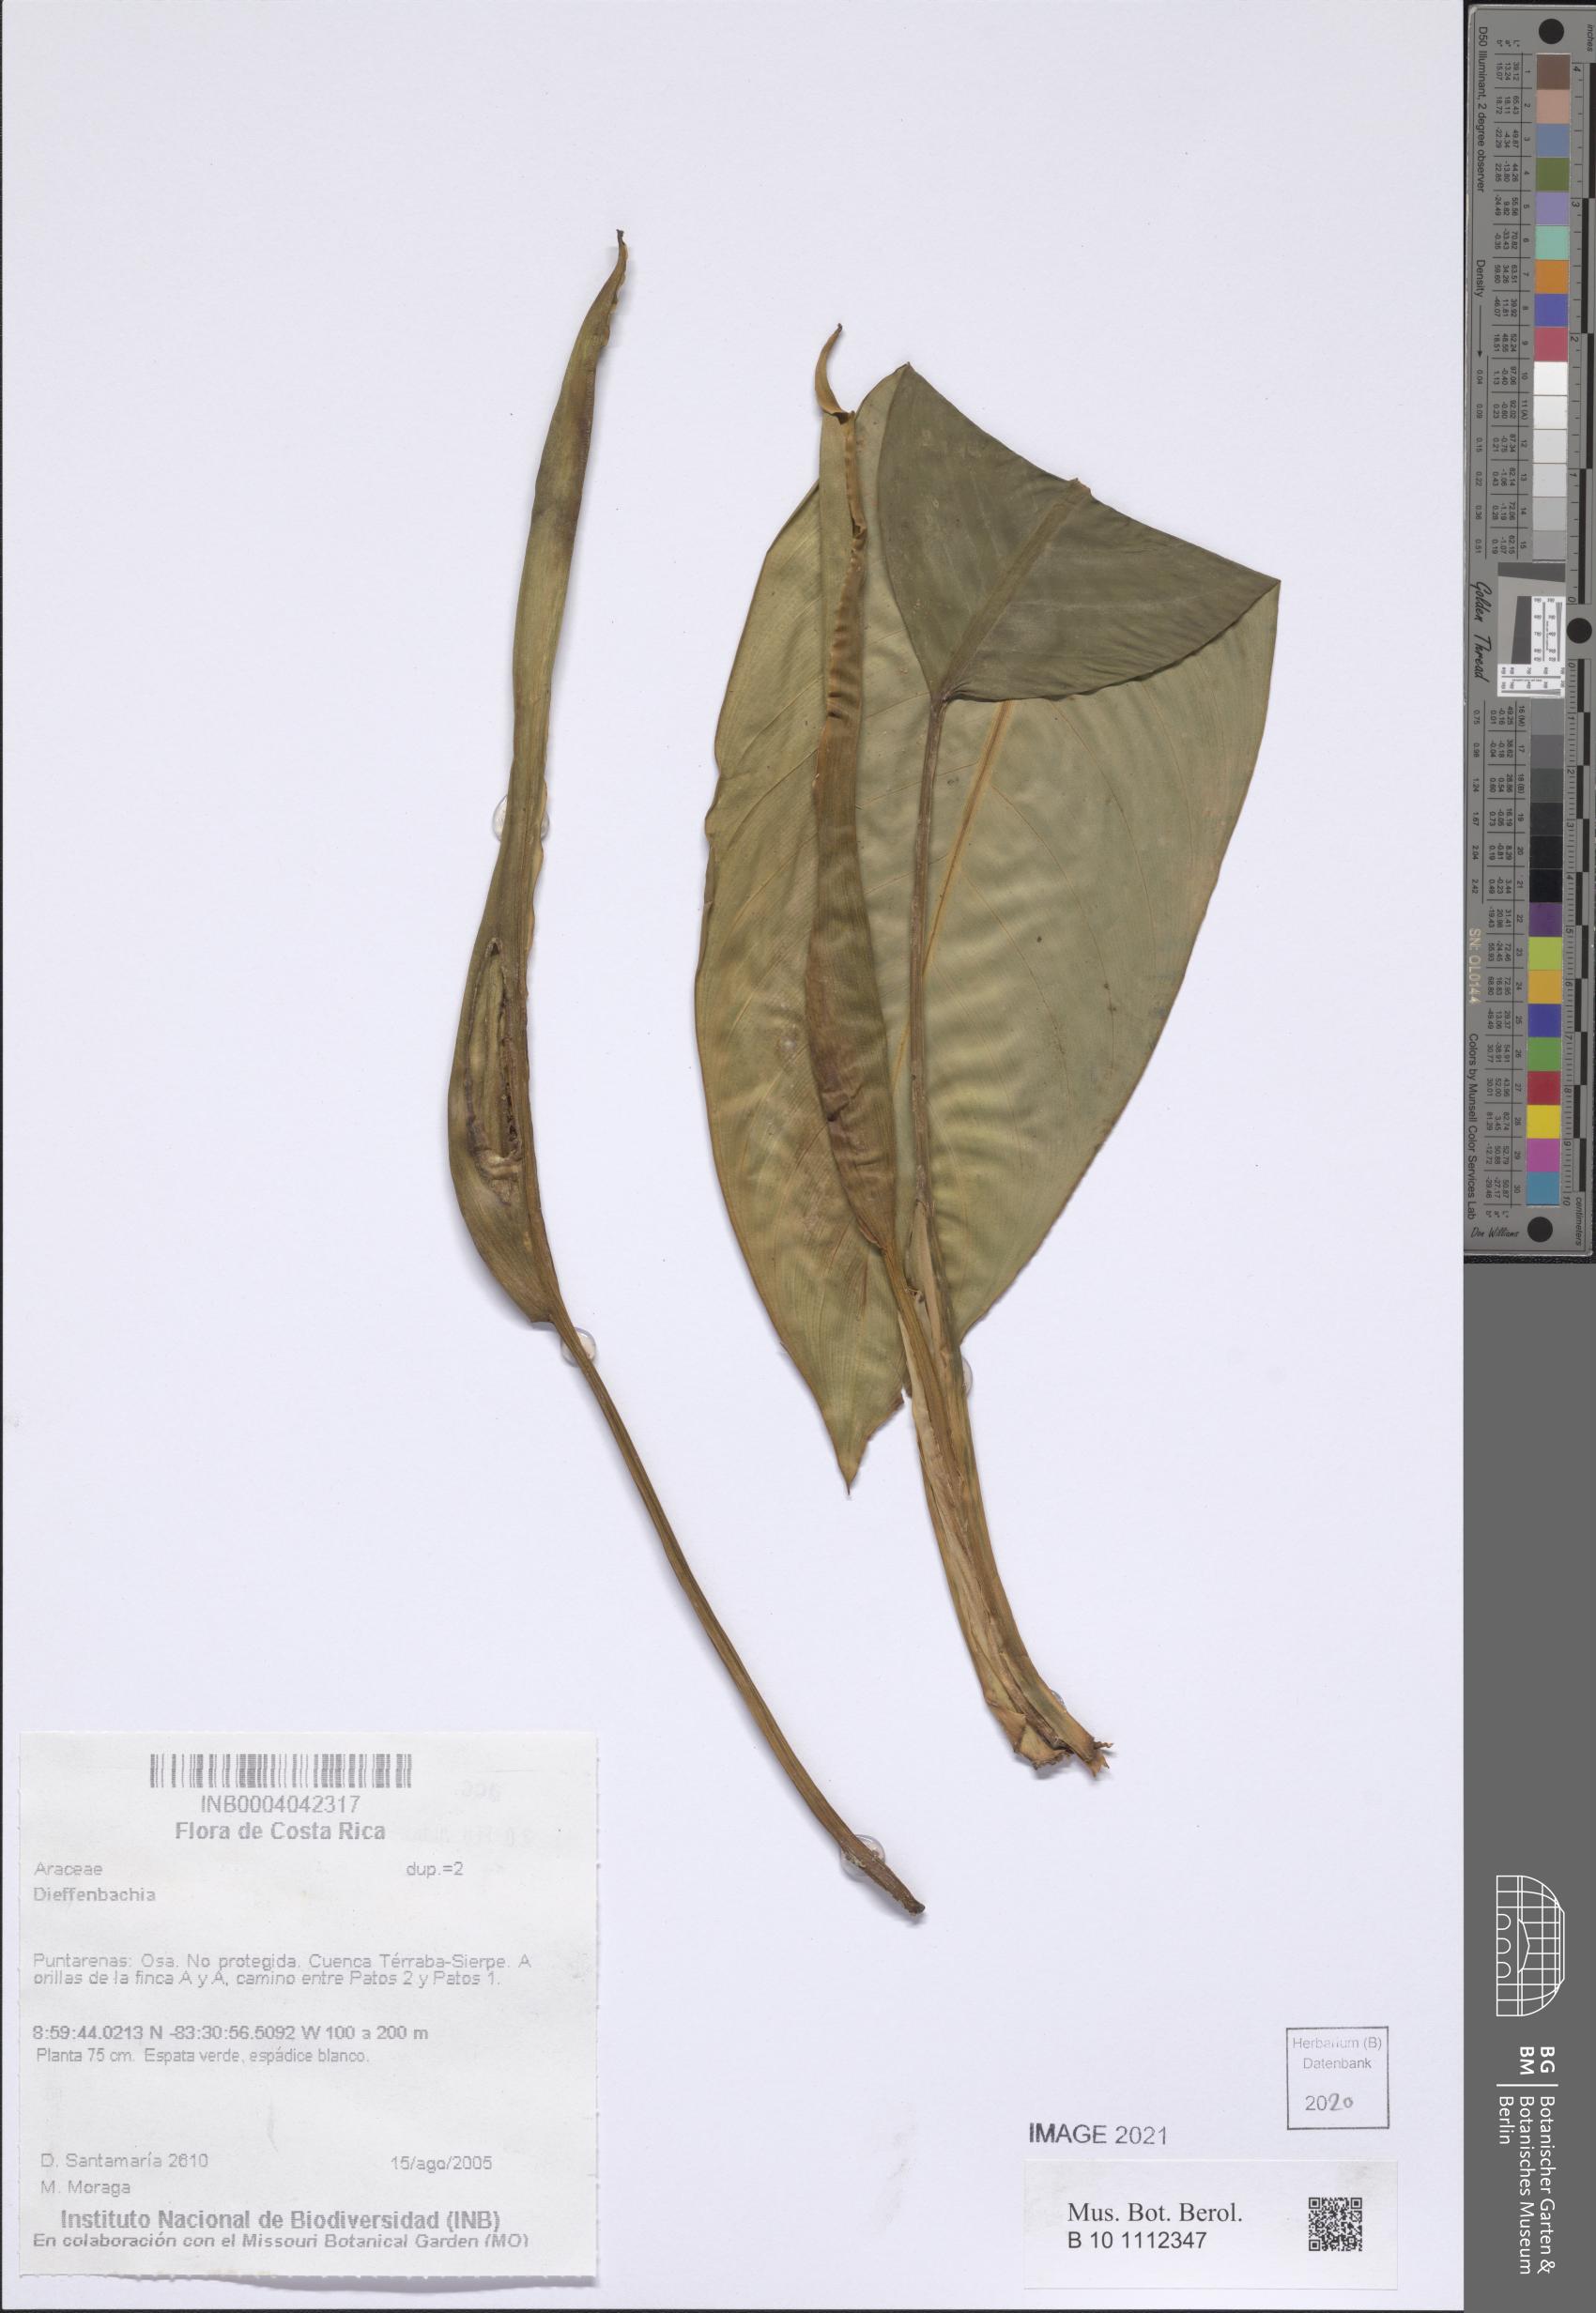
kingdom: Plantae
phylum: Tracheophyta
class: Liliopsida
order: Alismatales
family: Araceae
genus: Dieffenbachia
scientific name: Dieffenbachia
